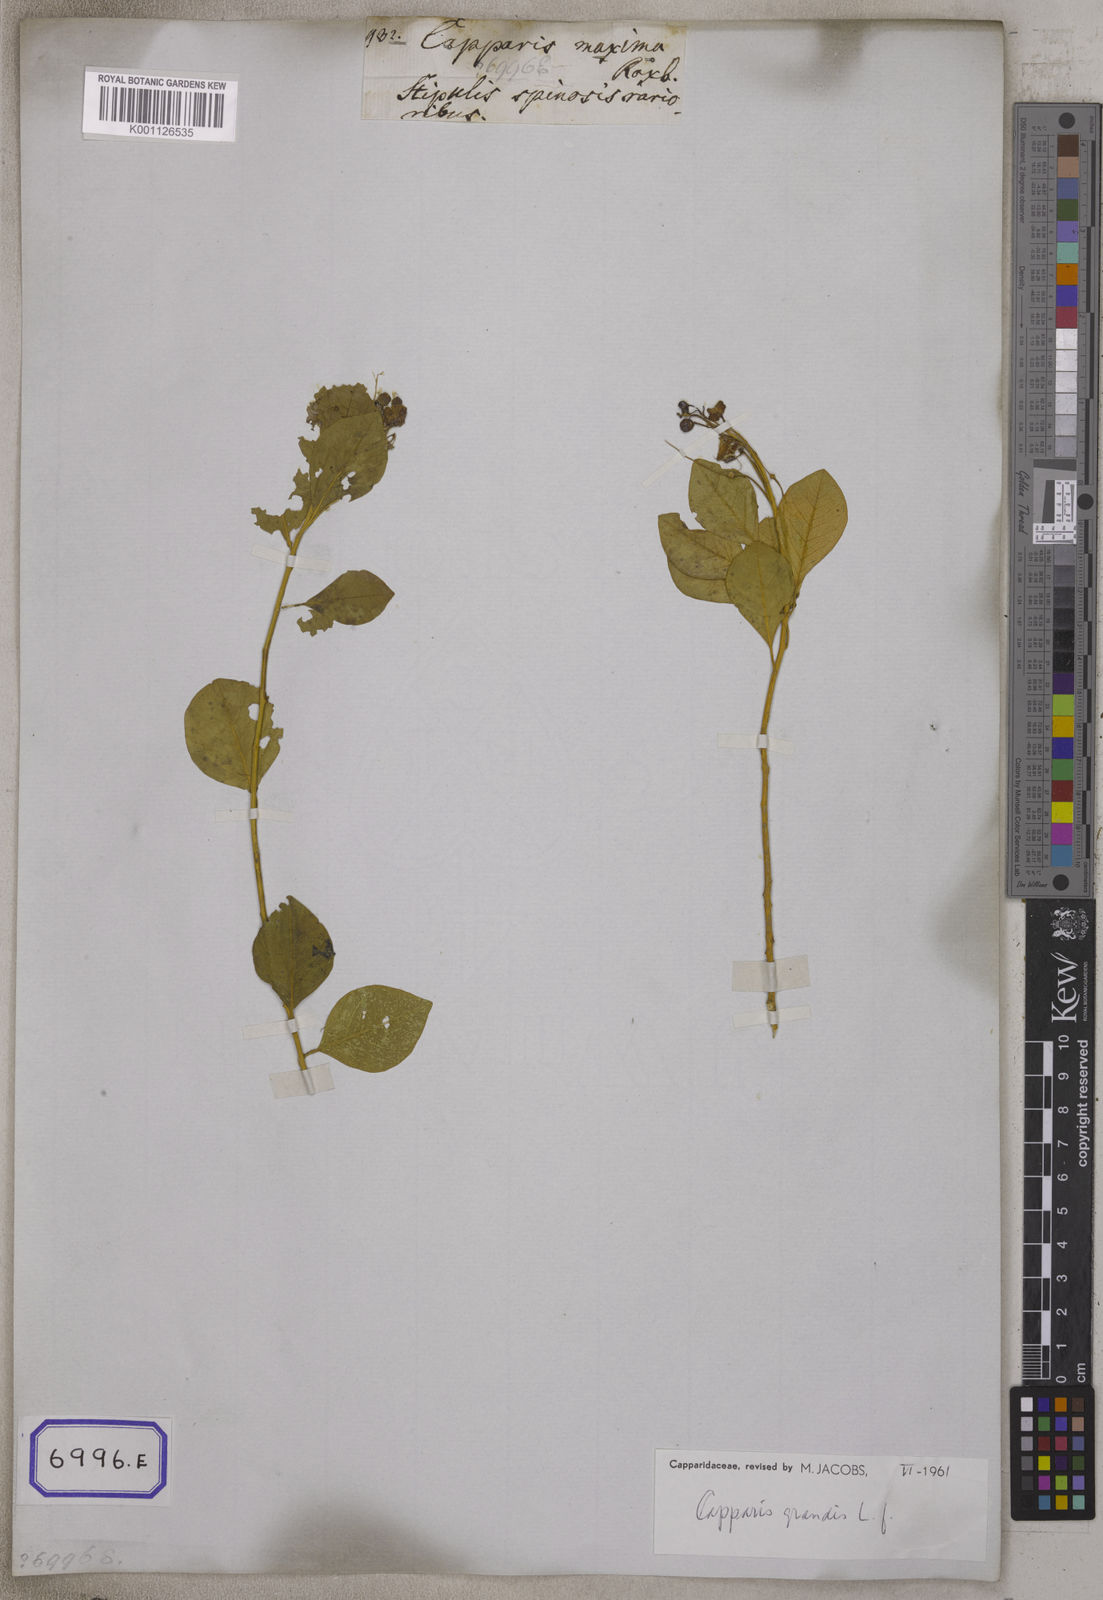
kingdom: Plantae
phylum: Tracheophyta
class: Magnoliopsida
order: Brassicales
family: Capparaceae
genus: Capparis
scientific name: Capparis grandis
